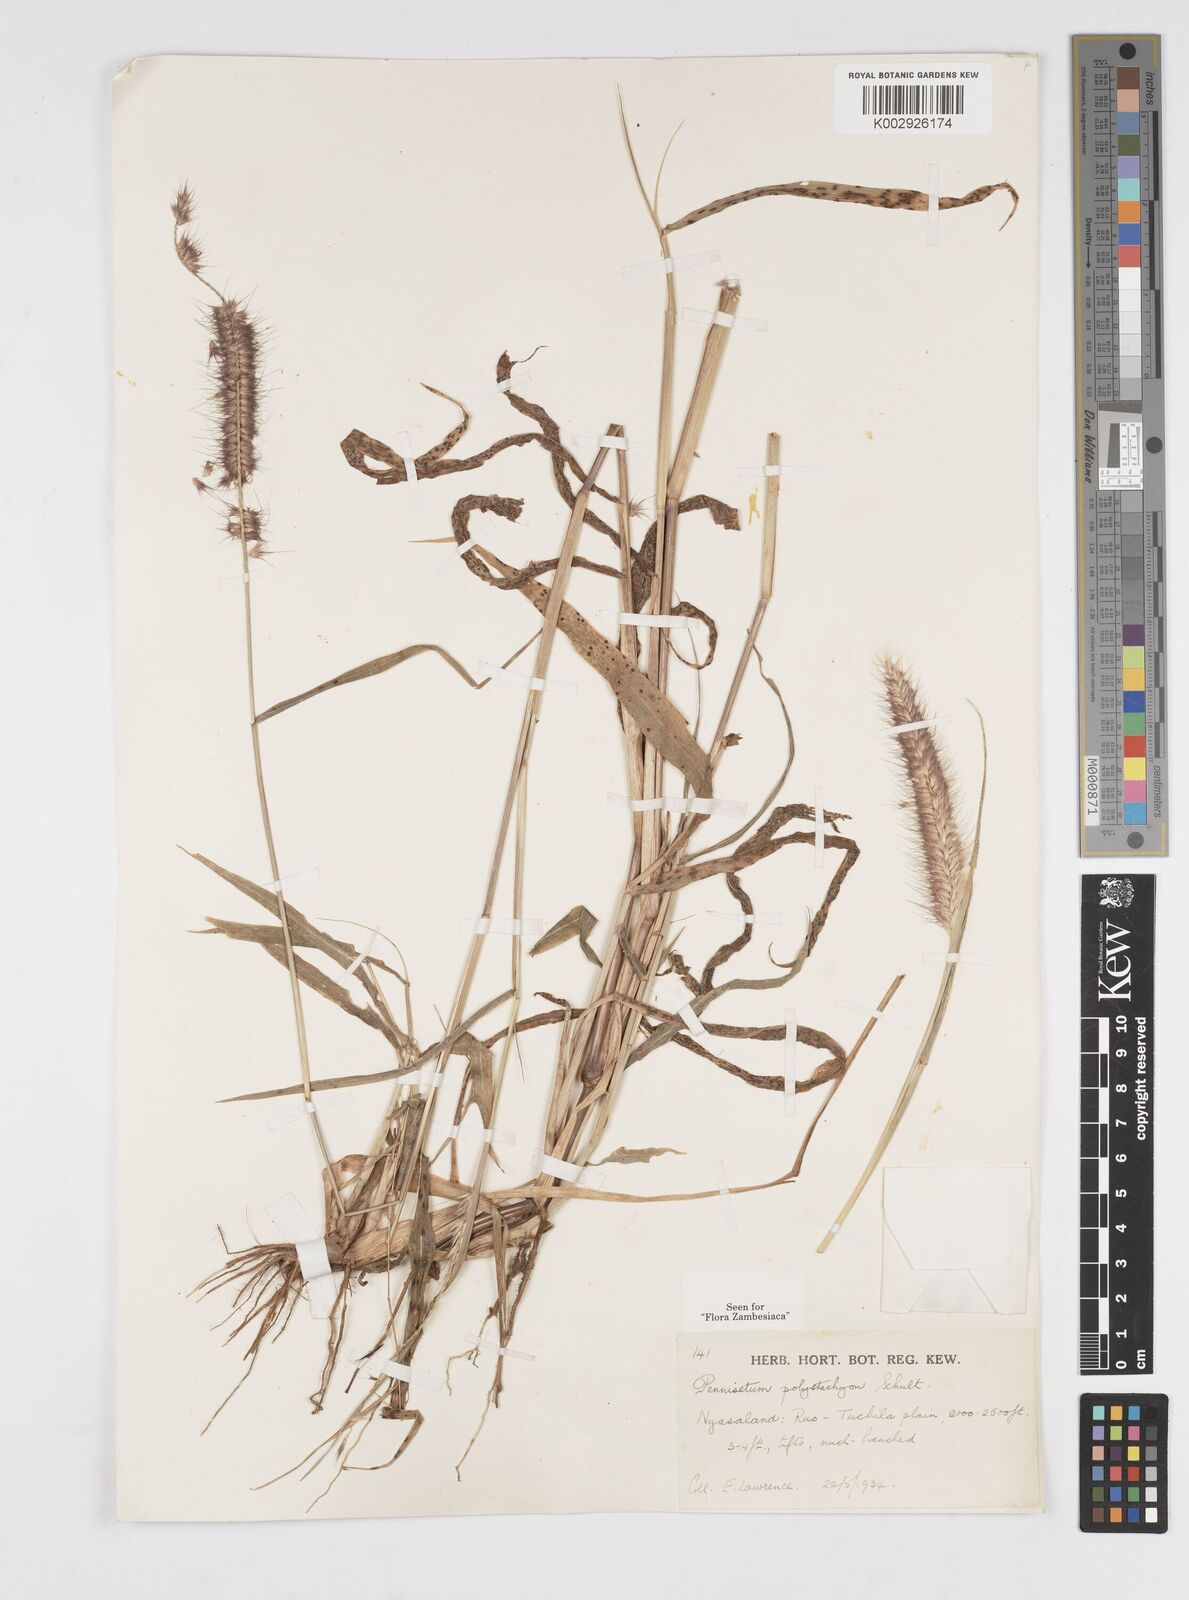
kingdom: Plantae
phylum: Tracheophyta
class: Liliopsida
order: Poales
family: Poaceae
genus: Setaria
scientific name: Setaria parviflora
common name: Knotroot bristle-grass
